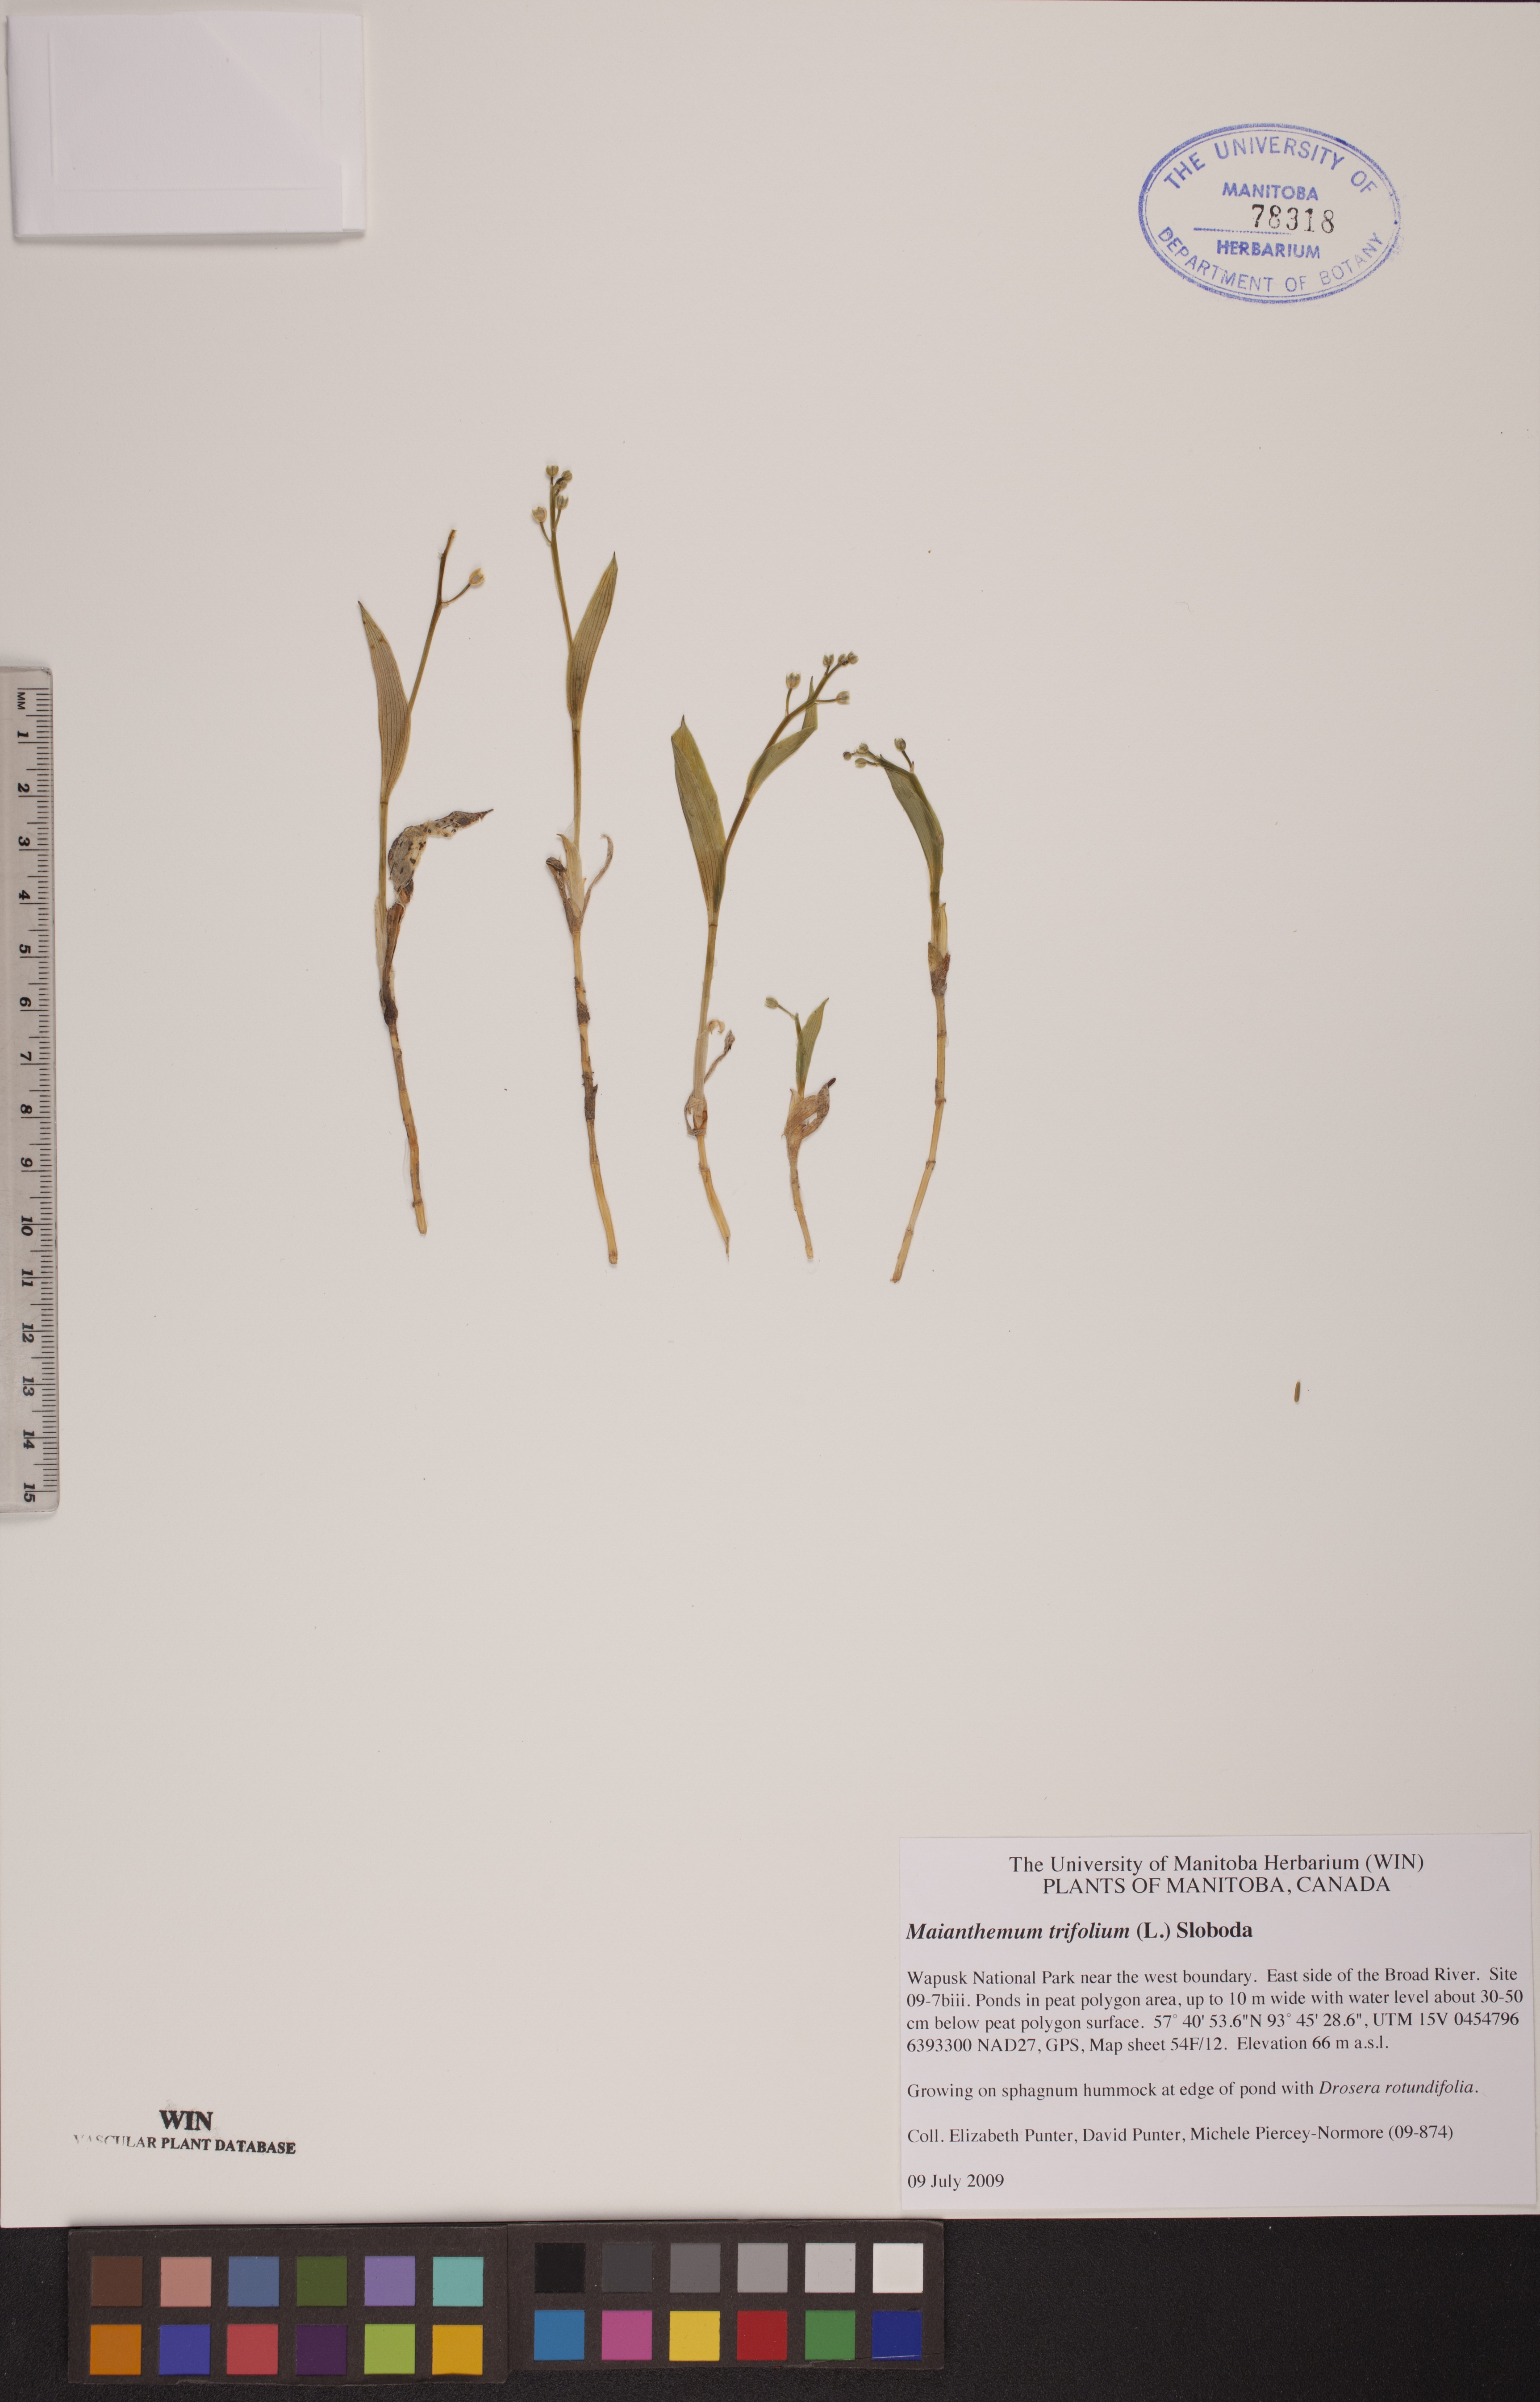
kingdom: Plantae
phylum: Tracheophyta
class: Liliopsida
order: Asparagales
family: Asparagaceae
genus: Maianthemum
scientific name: Maianthemum trifolium
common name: Swamp false solomon's seal
